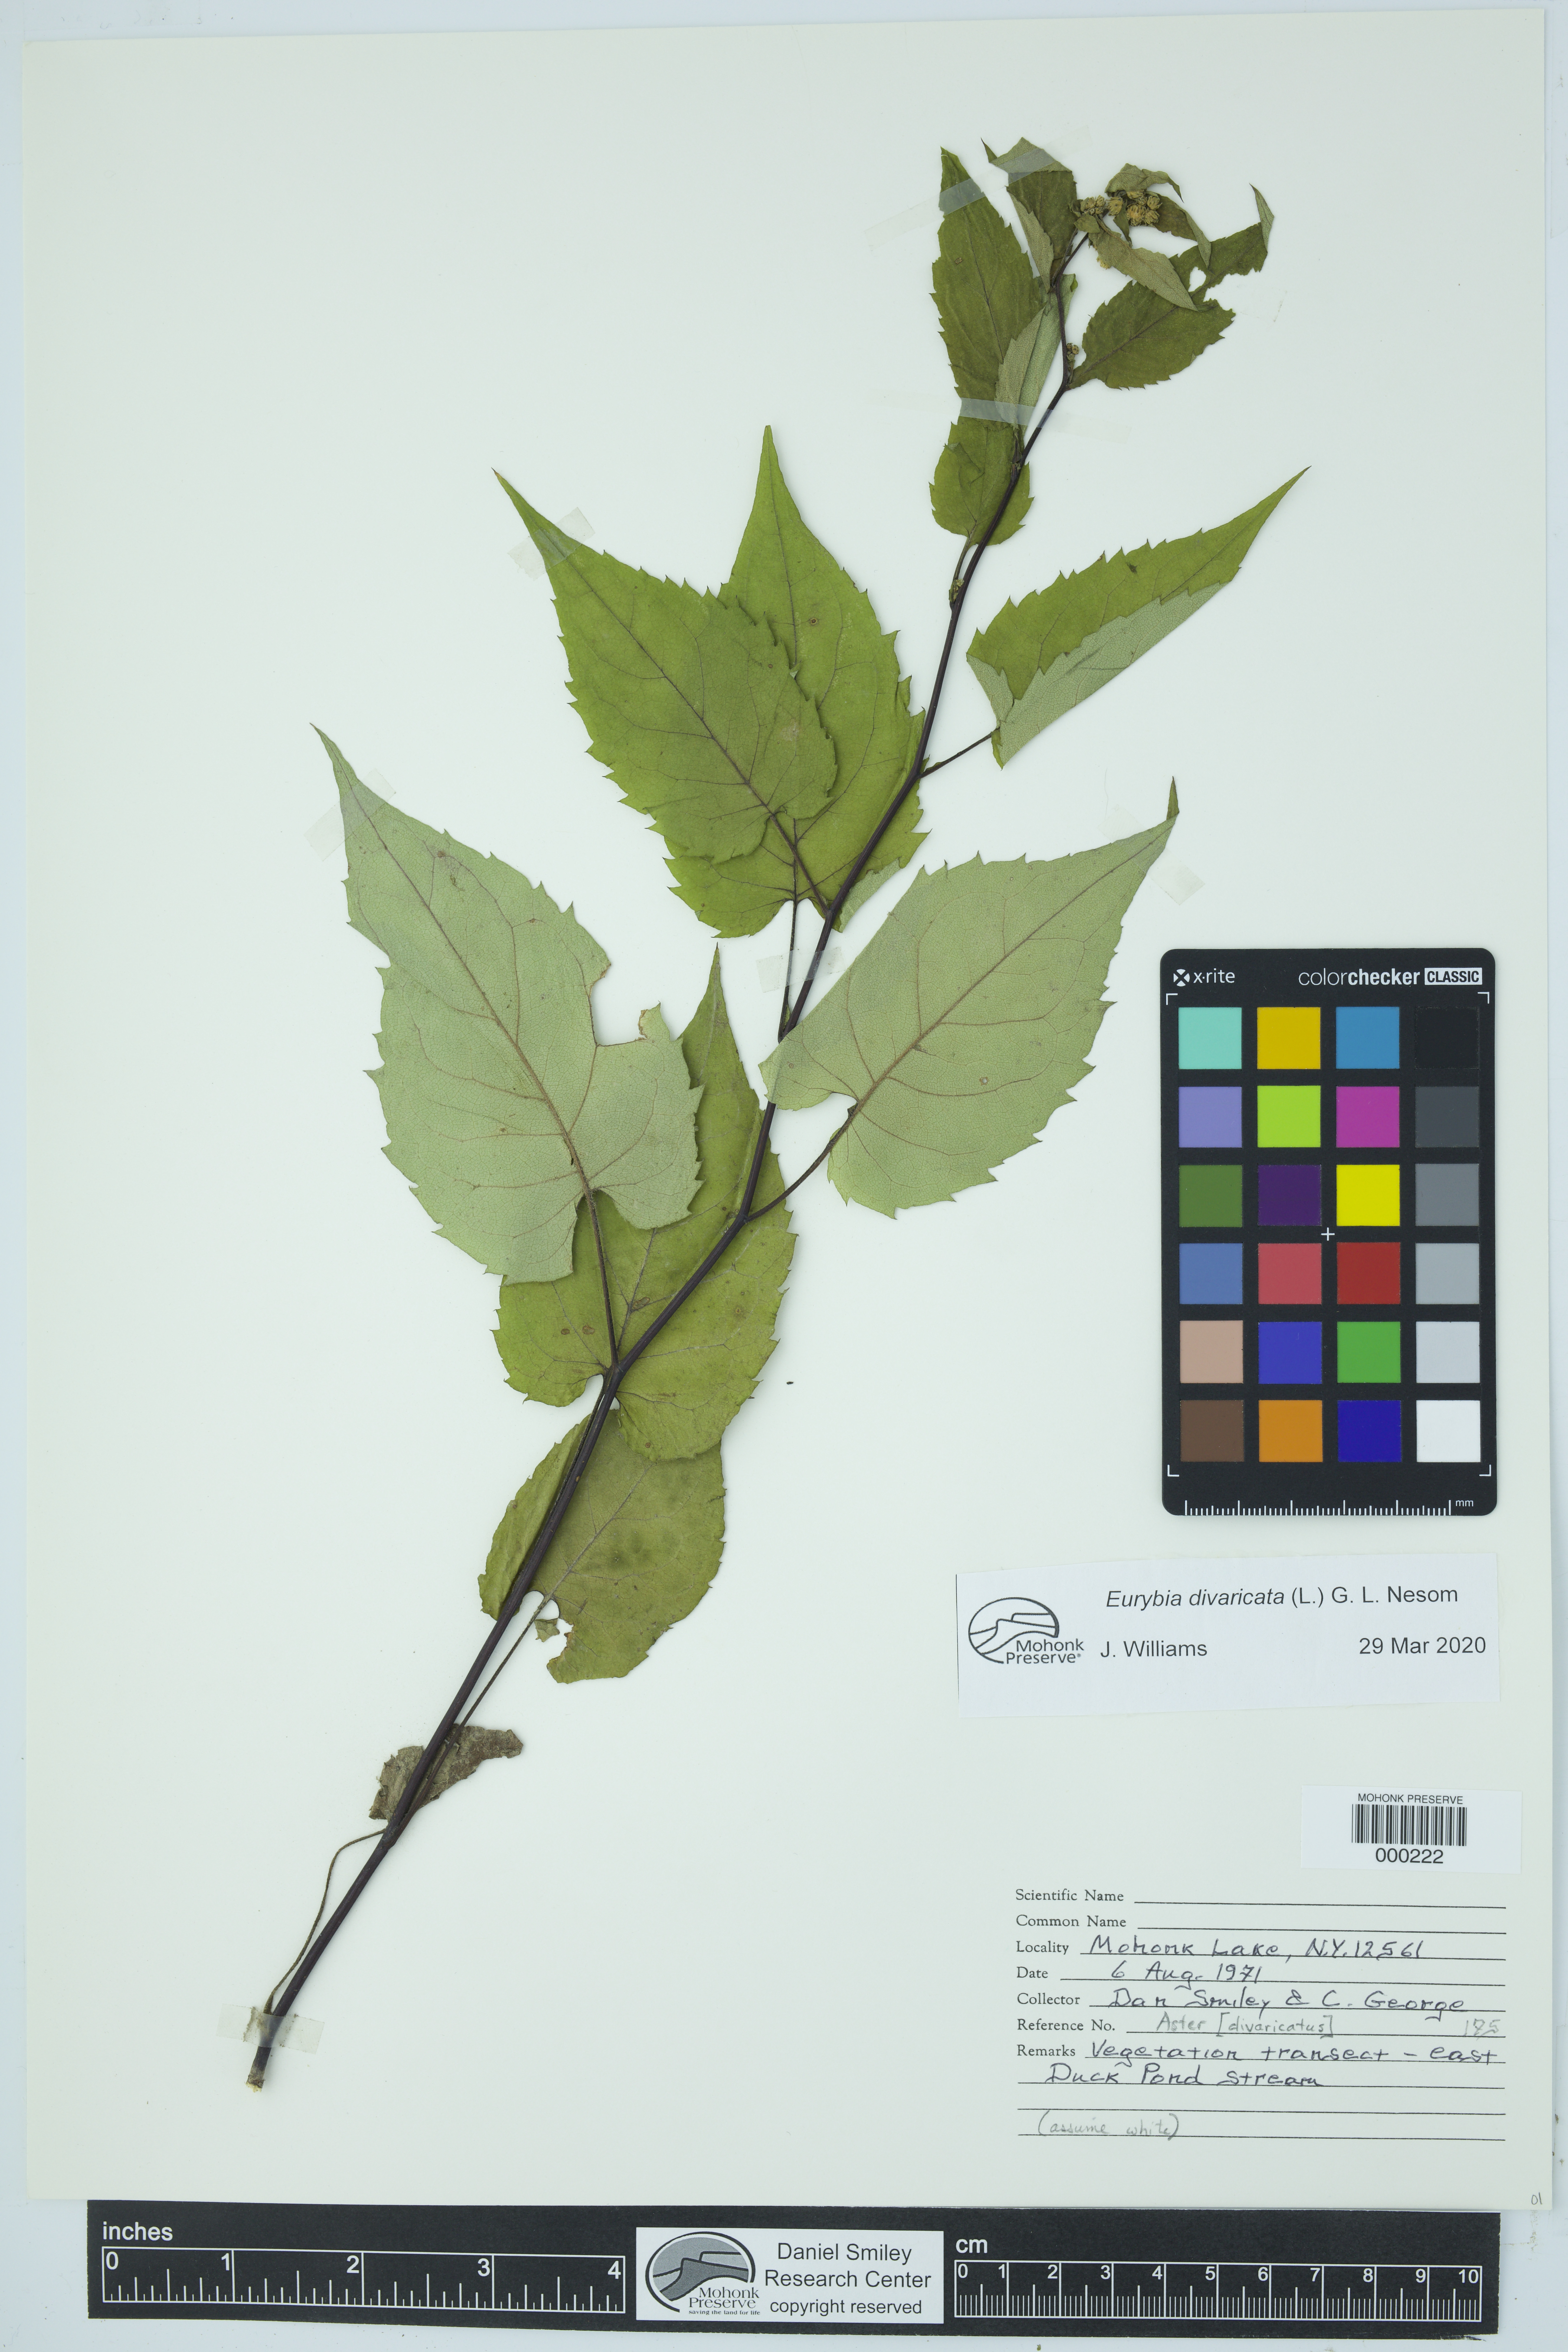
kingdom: Plantae
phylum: Tracheophyta
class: Magnoliopsida
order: Asterales
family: Asteraceae
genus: Eurybia
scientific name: Eurybia divaricata
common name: White wood aster
